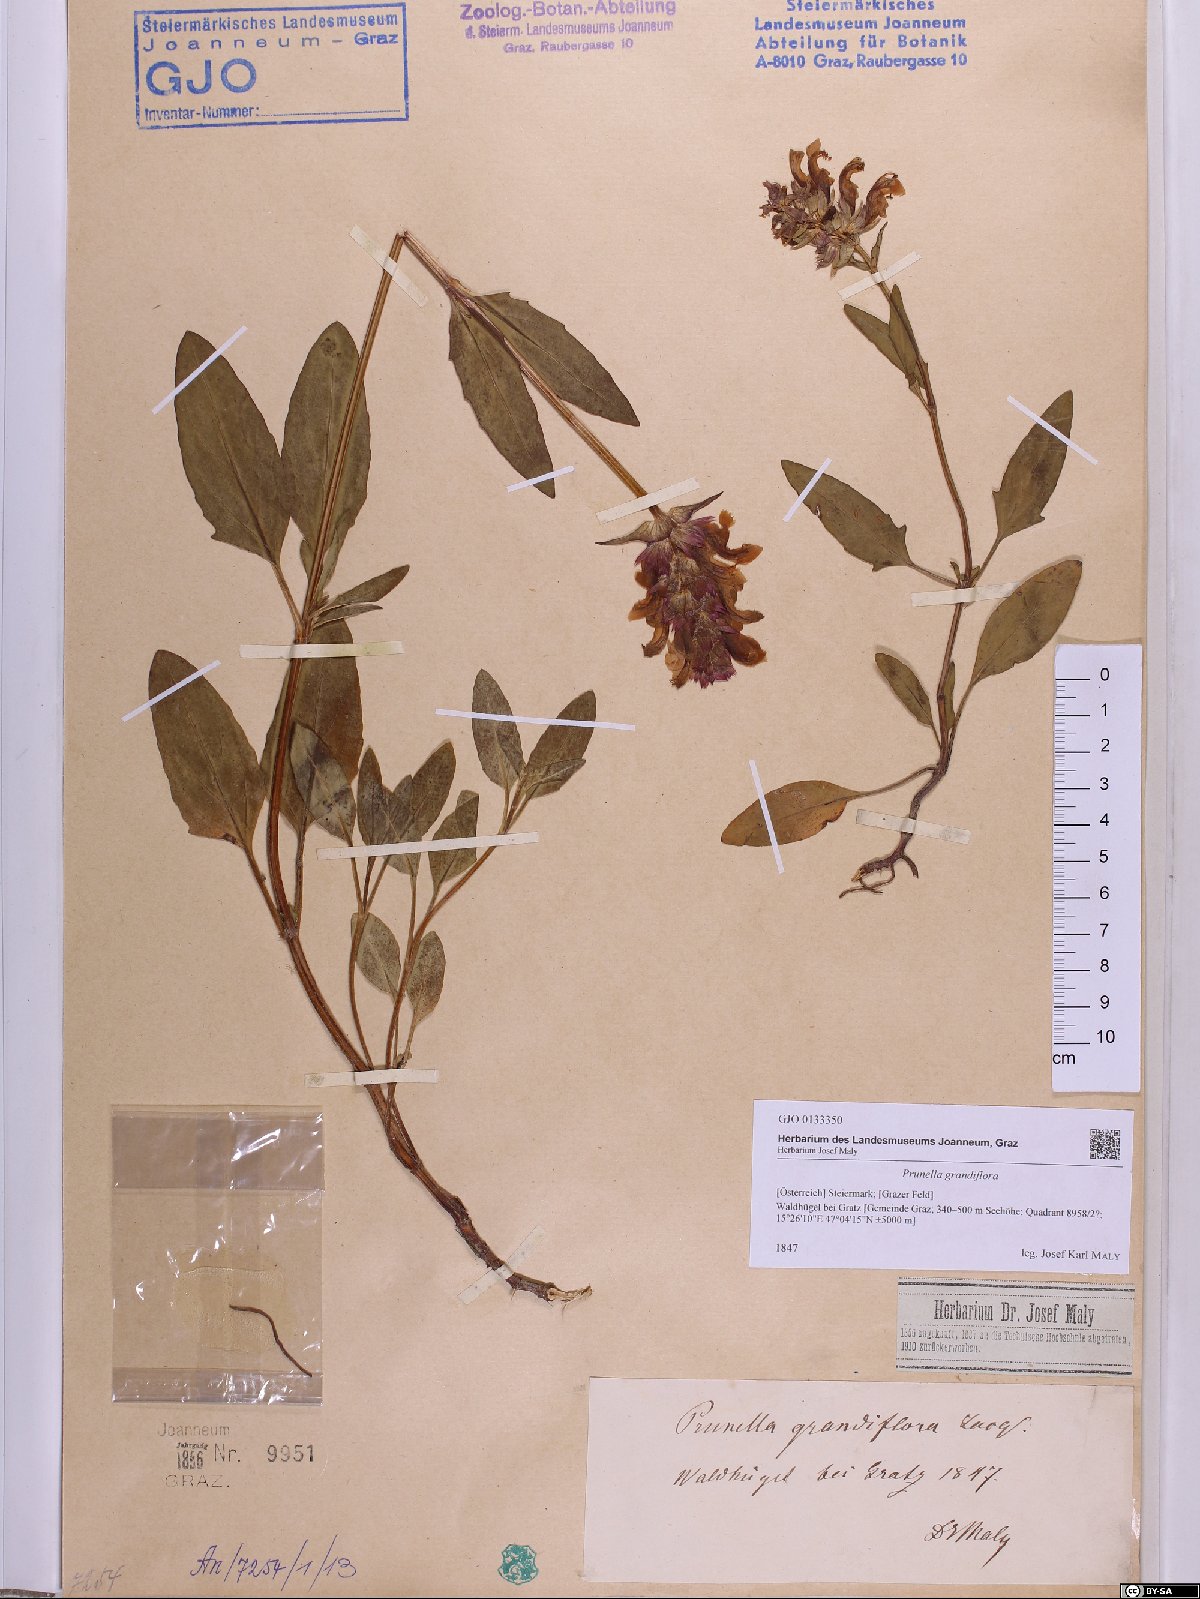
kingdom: Plantae
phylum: Tracheophyta
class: Magnoliopsida
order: Lamiales
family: Lamiaceae
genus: Prunella
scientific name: Prunella grandiflora
